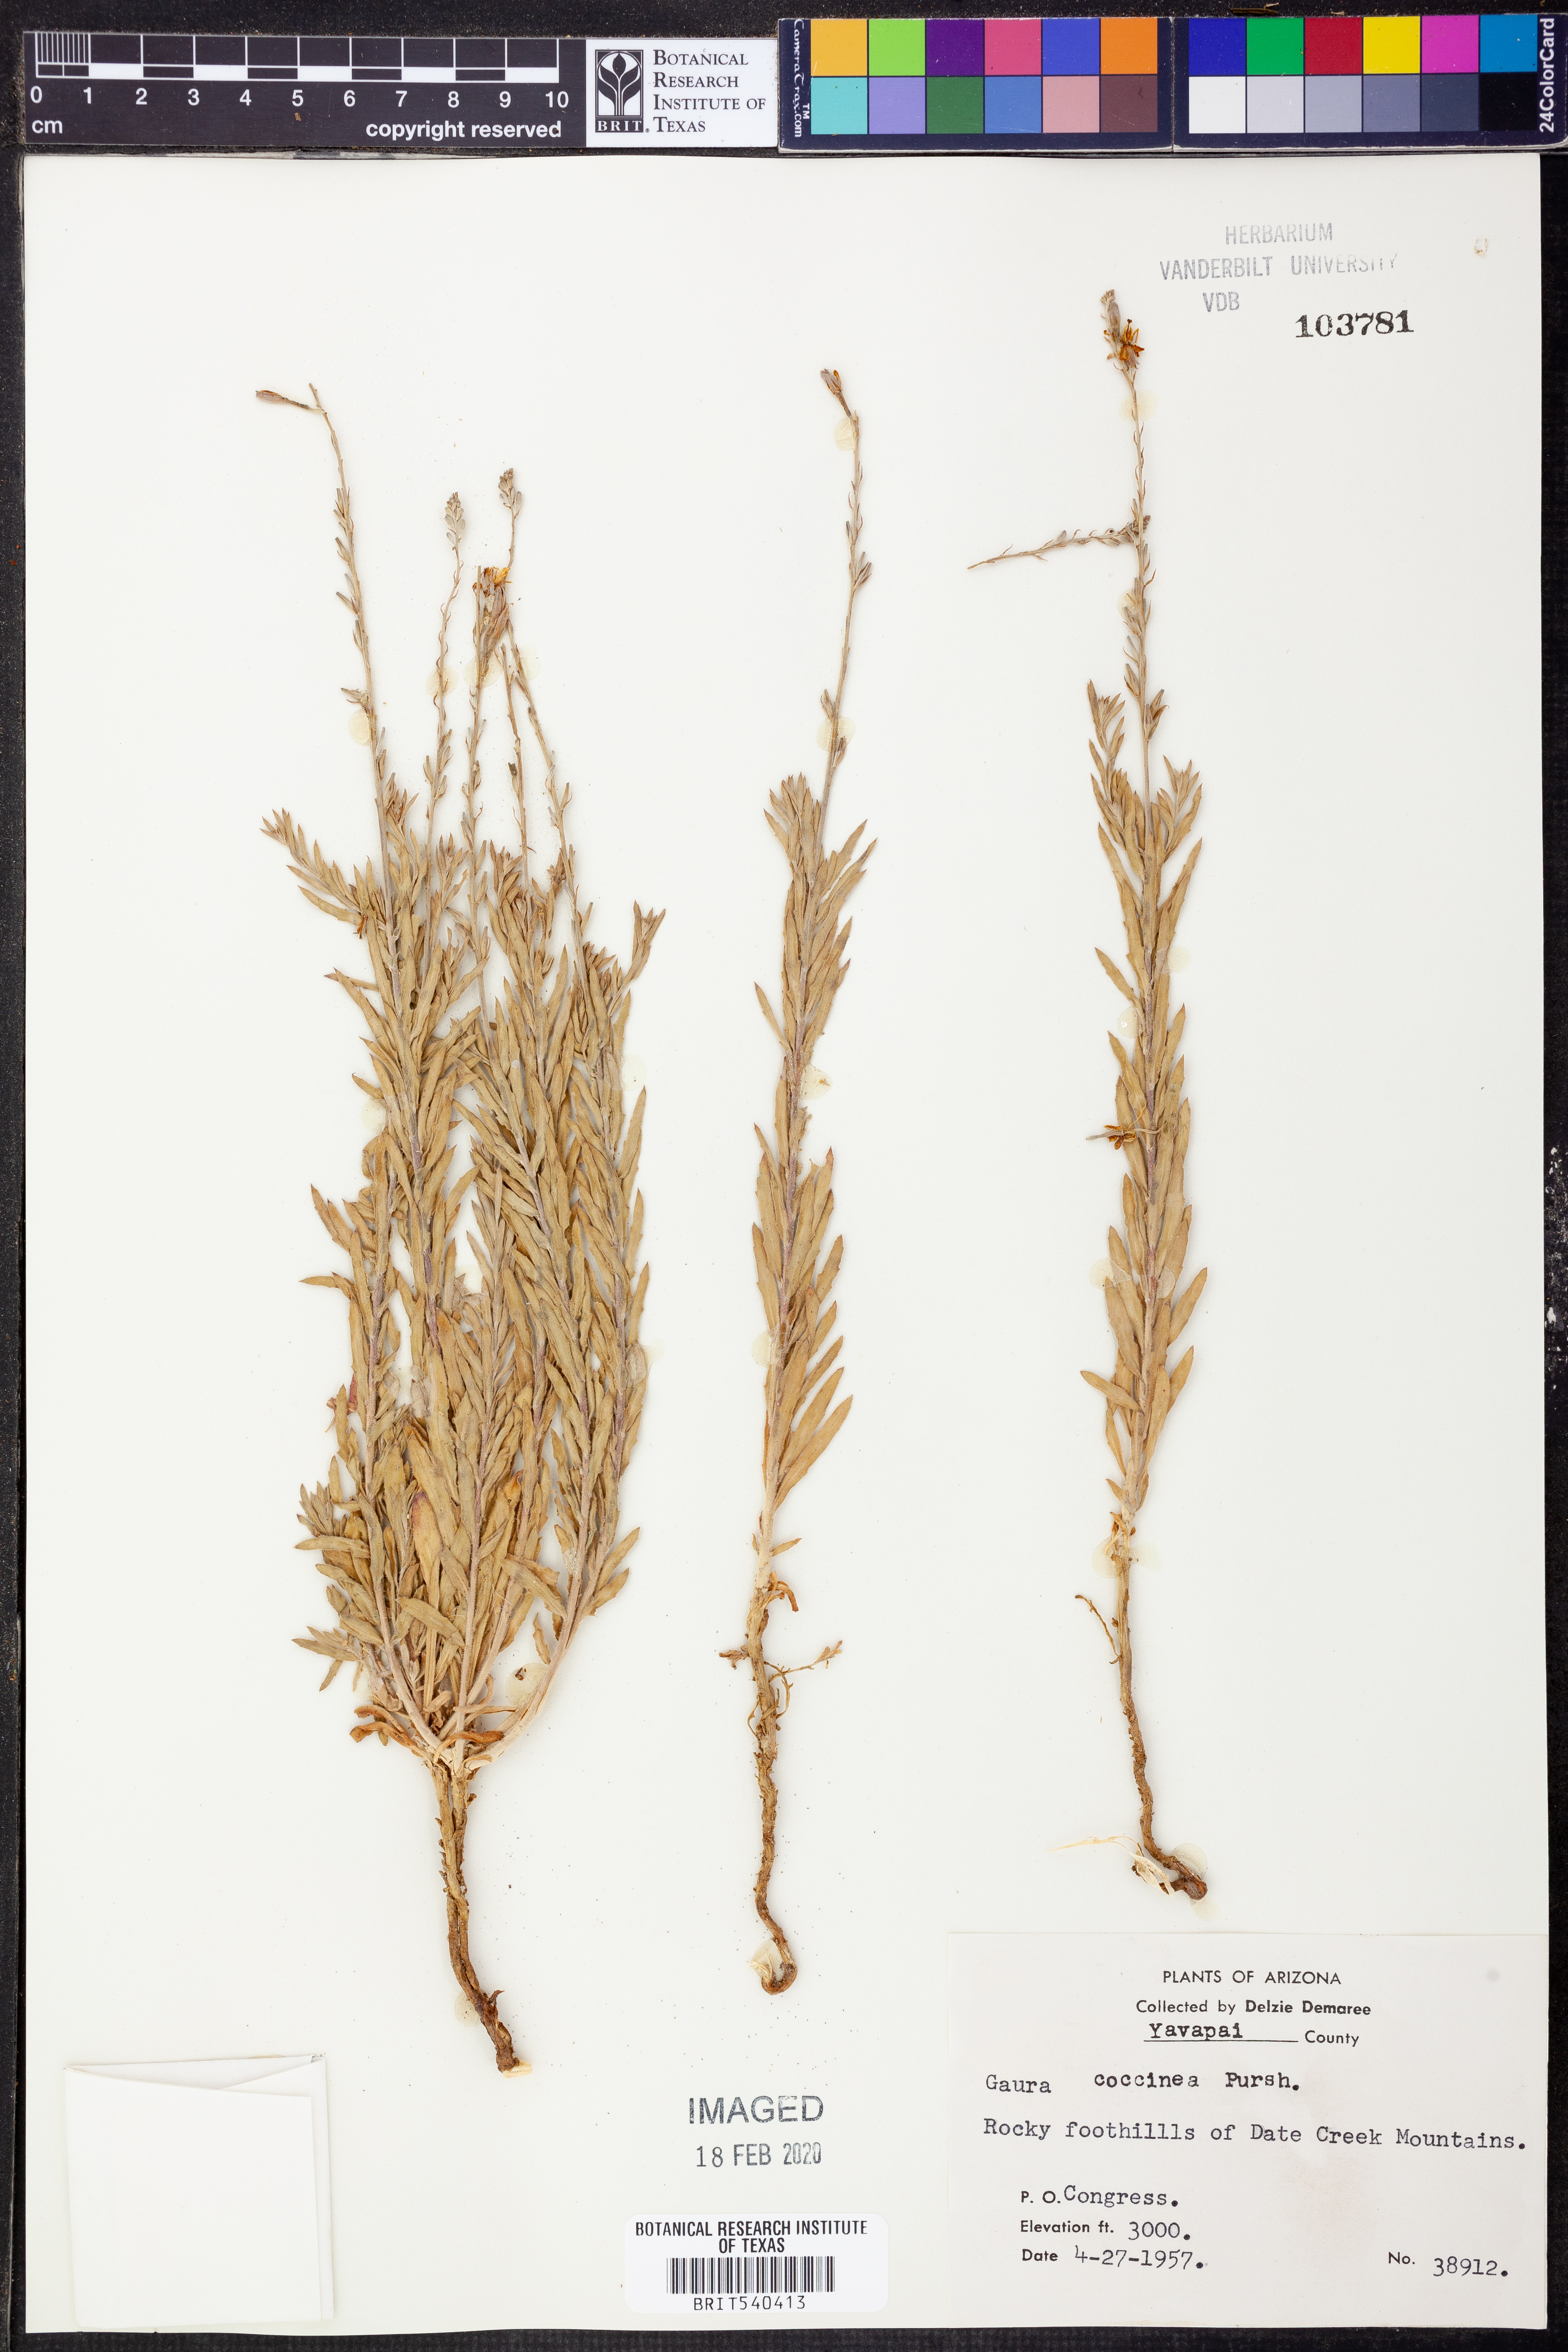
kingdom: Plantae
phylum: Tracheophyta
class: Magnoliopsida
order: Myrtales
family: Onagraceae
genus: Oenothera
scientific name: Oenothera suffrutescens
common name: Scarlet beeblossom
